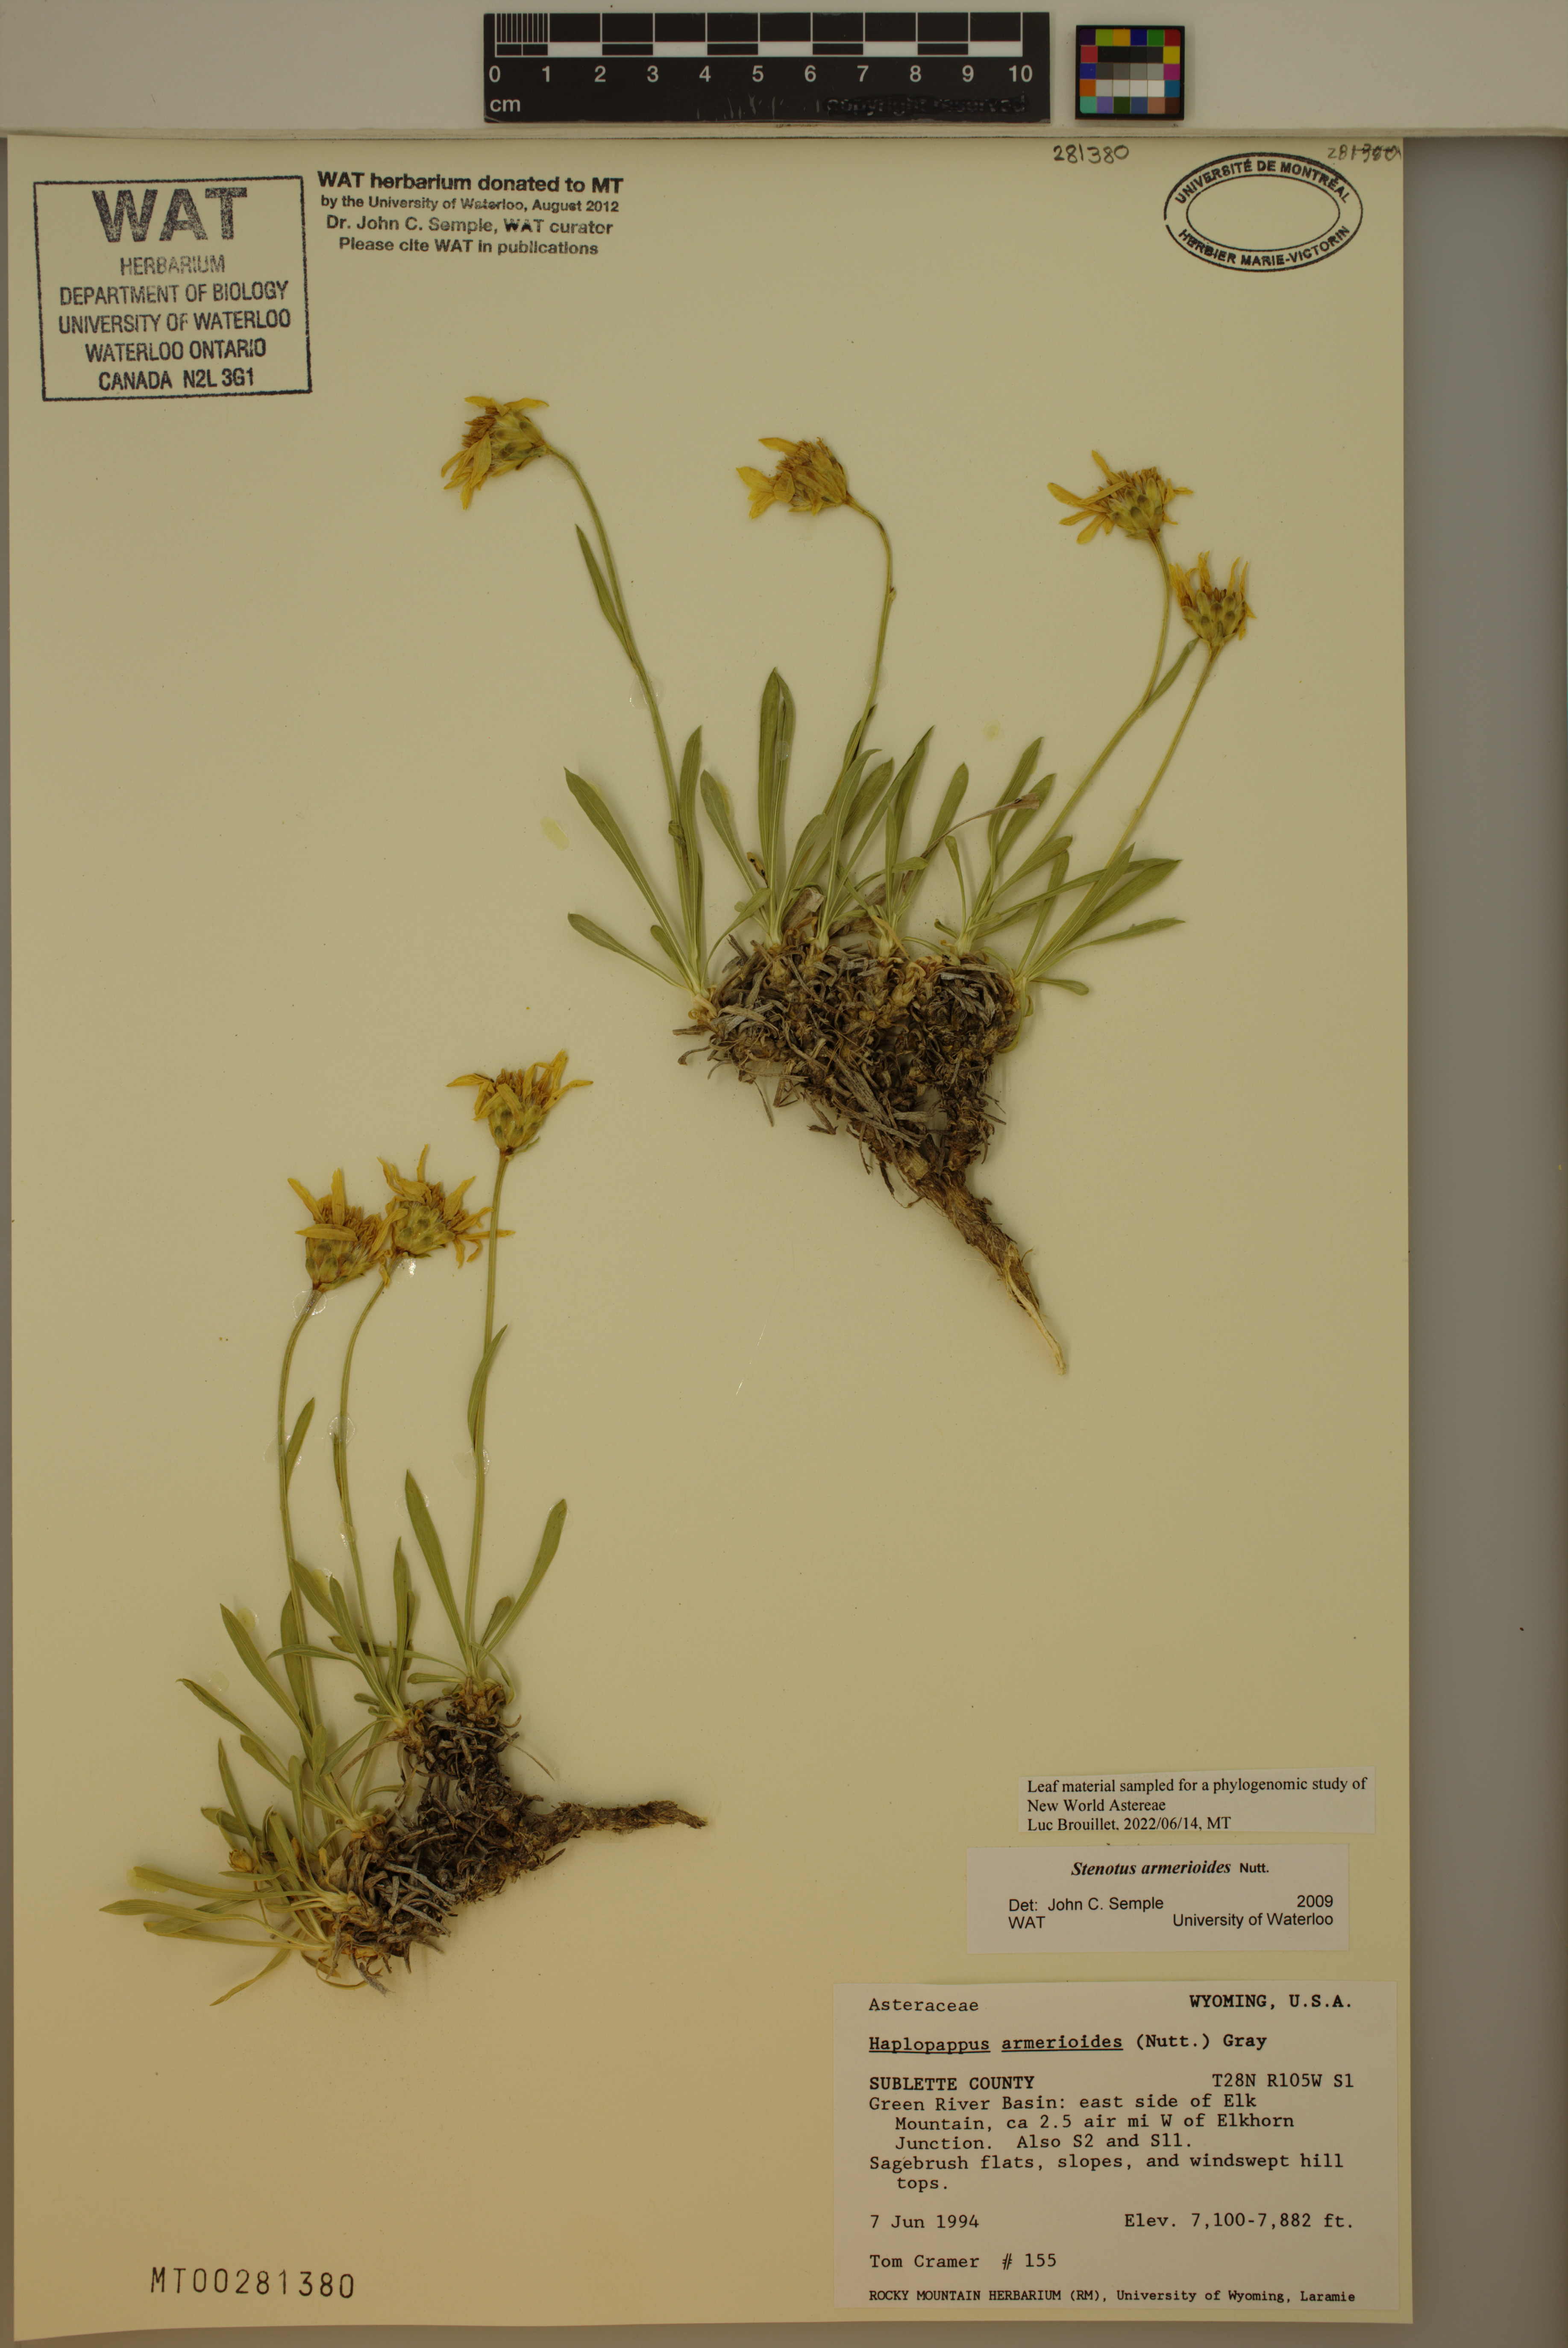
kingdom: Plantae
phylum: Tracheophyta
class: Magnoliopsida
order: Asterales
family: Asteraceae
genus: Stenotus
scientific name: Stenotus armerioides
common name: Thrifty goldenweed
